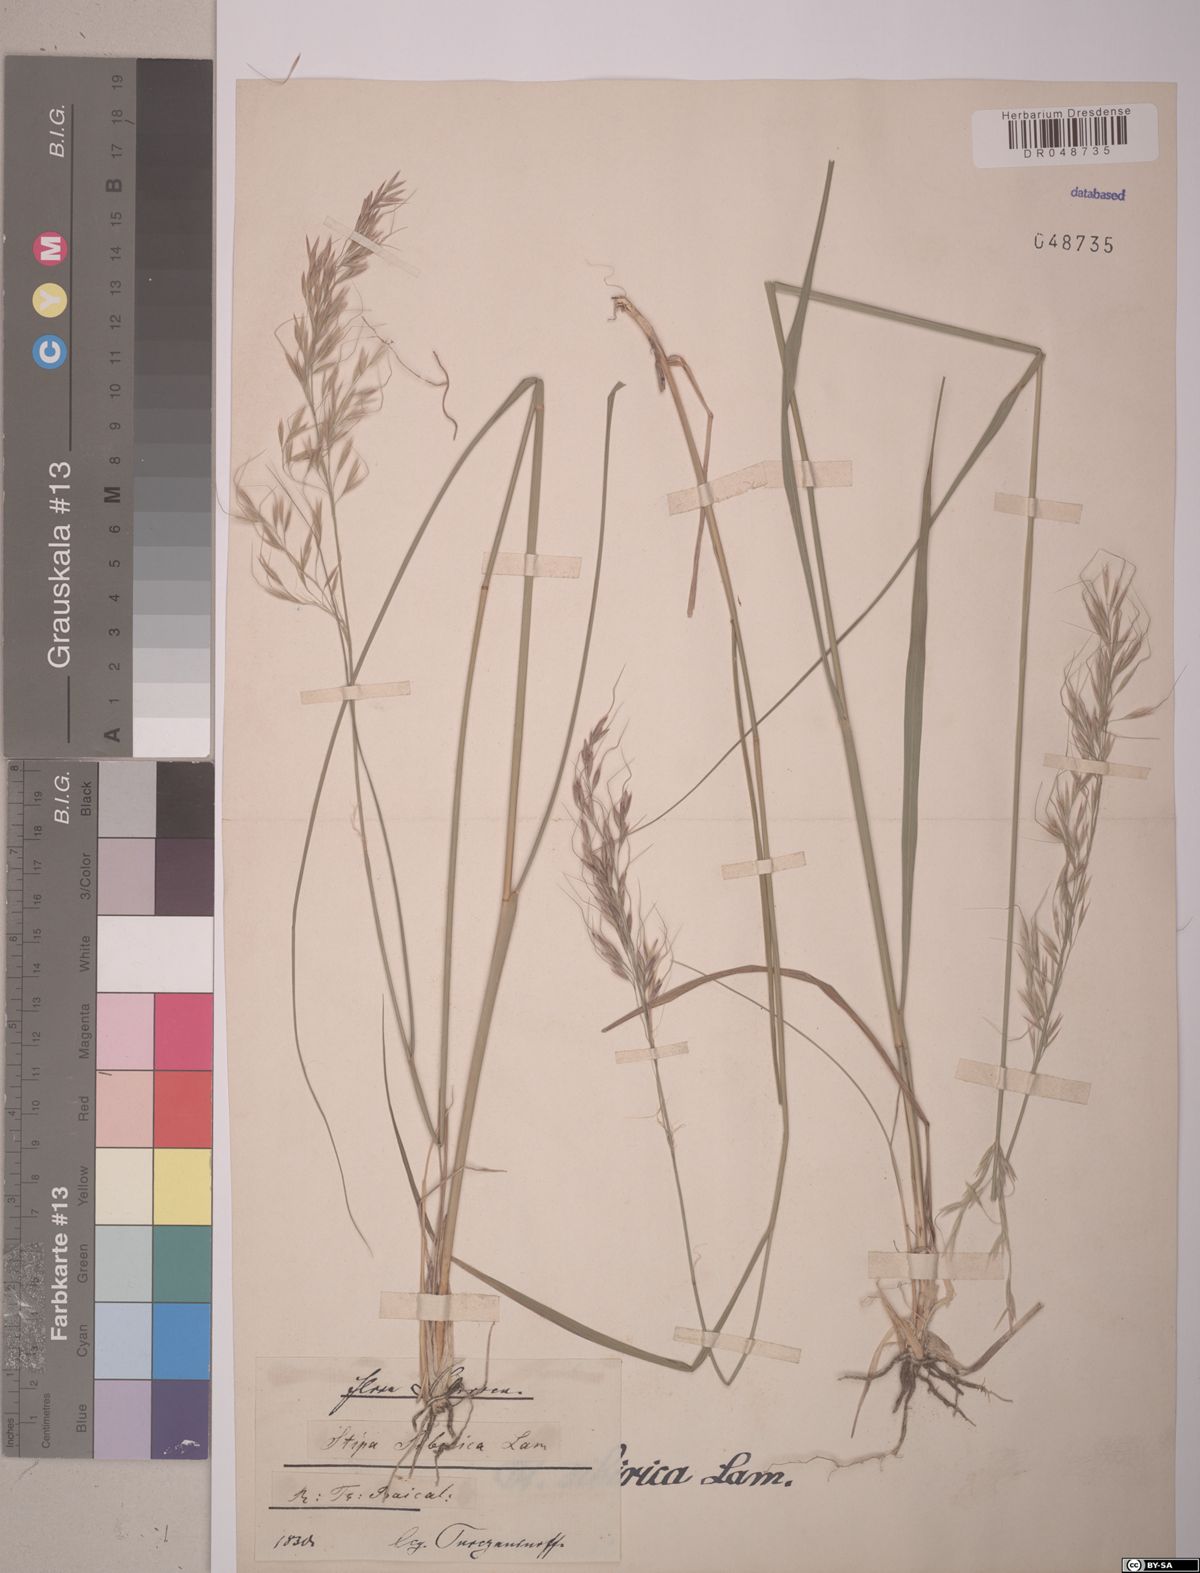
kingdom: Plantae
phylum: Tracheophyta
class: Liliopsida
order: Poales
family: Poaceae
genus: Achnatherum
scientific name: Achnatherum sibiricum
